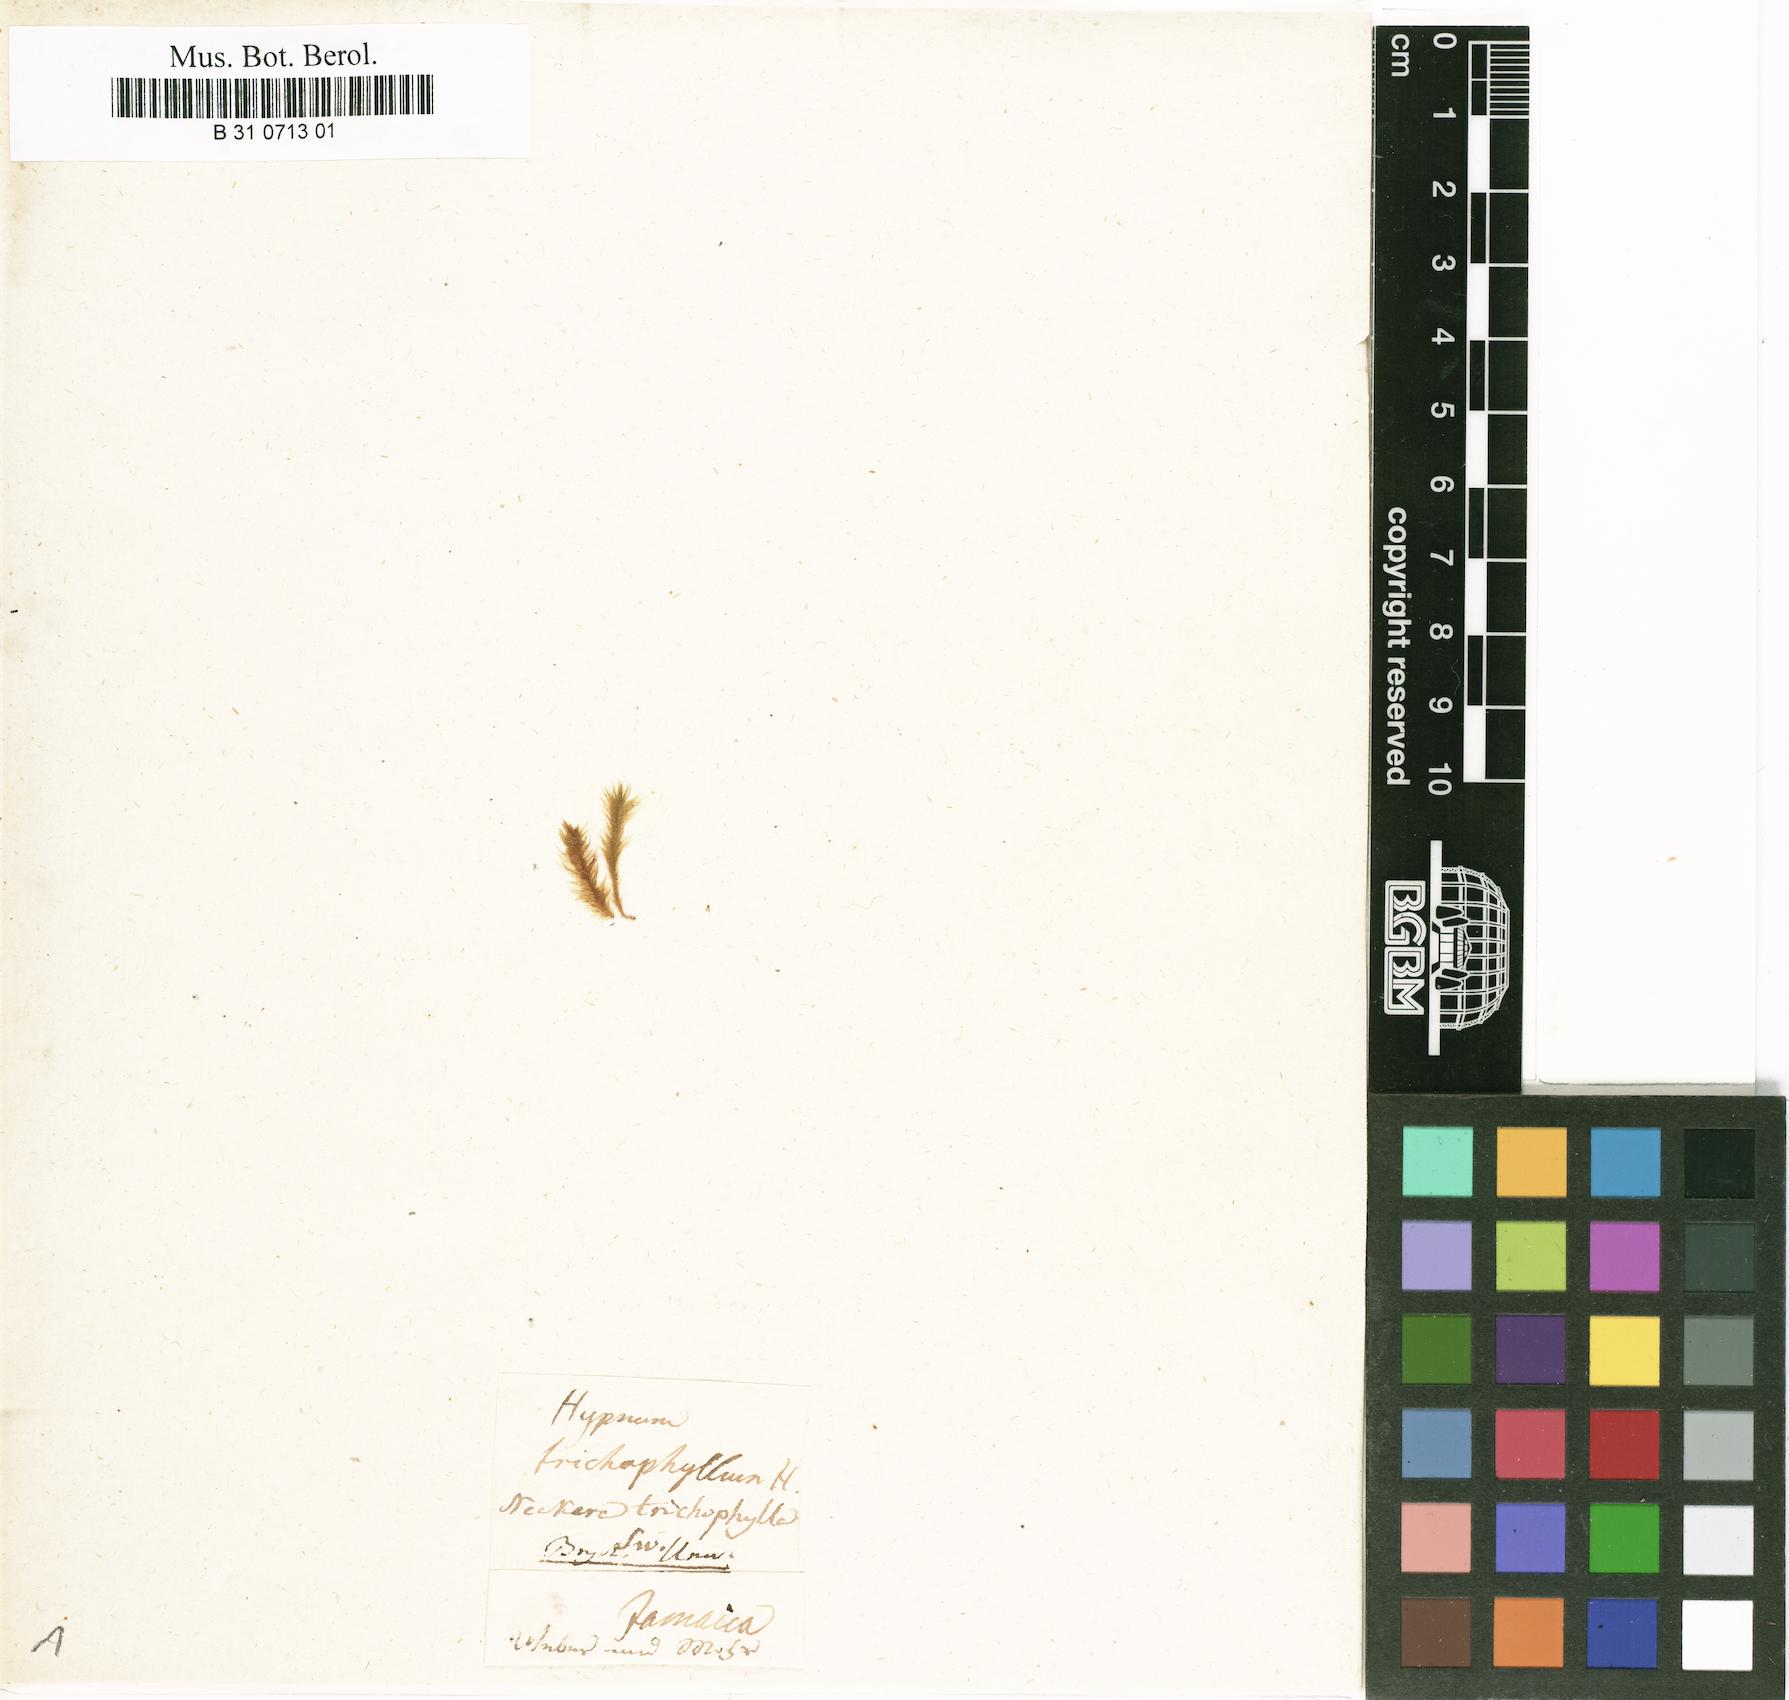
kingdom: Plantae
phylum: Bryophyta
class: Bryopsida
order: Hypnales
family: Meteoriaceae
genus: Lepyrodontopsis
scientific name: Lepyrodontopsis trichophylla
